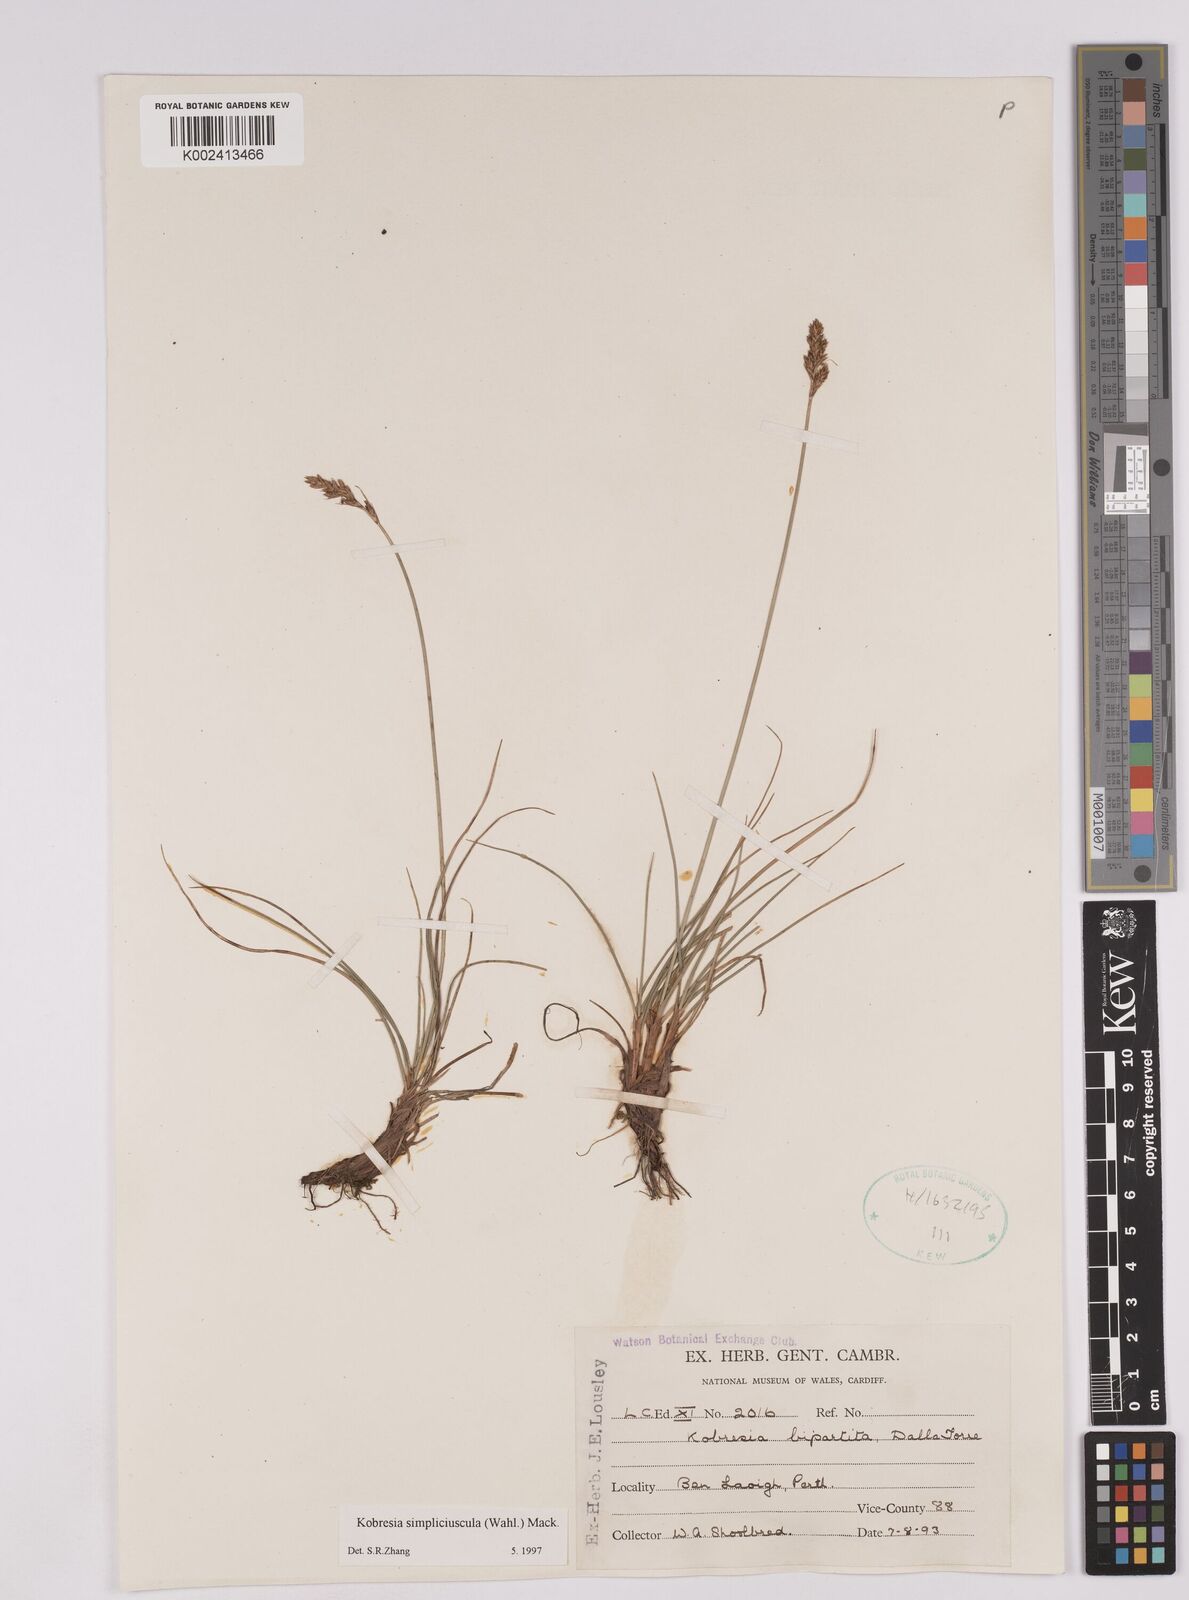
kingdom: Plantae
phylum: Tracheophyta
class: Liliopsida
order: Poales
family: Cyperaceae
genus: Carex
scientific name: Carex simpliciuscula
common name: Simple bog sedge
